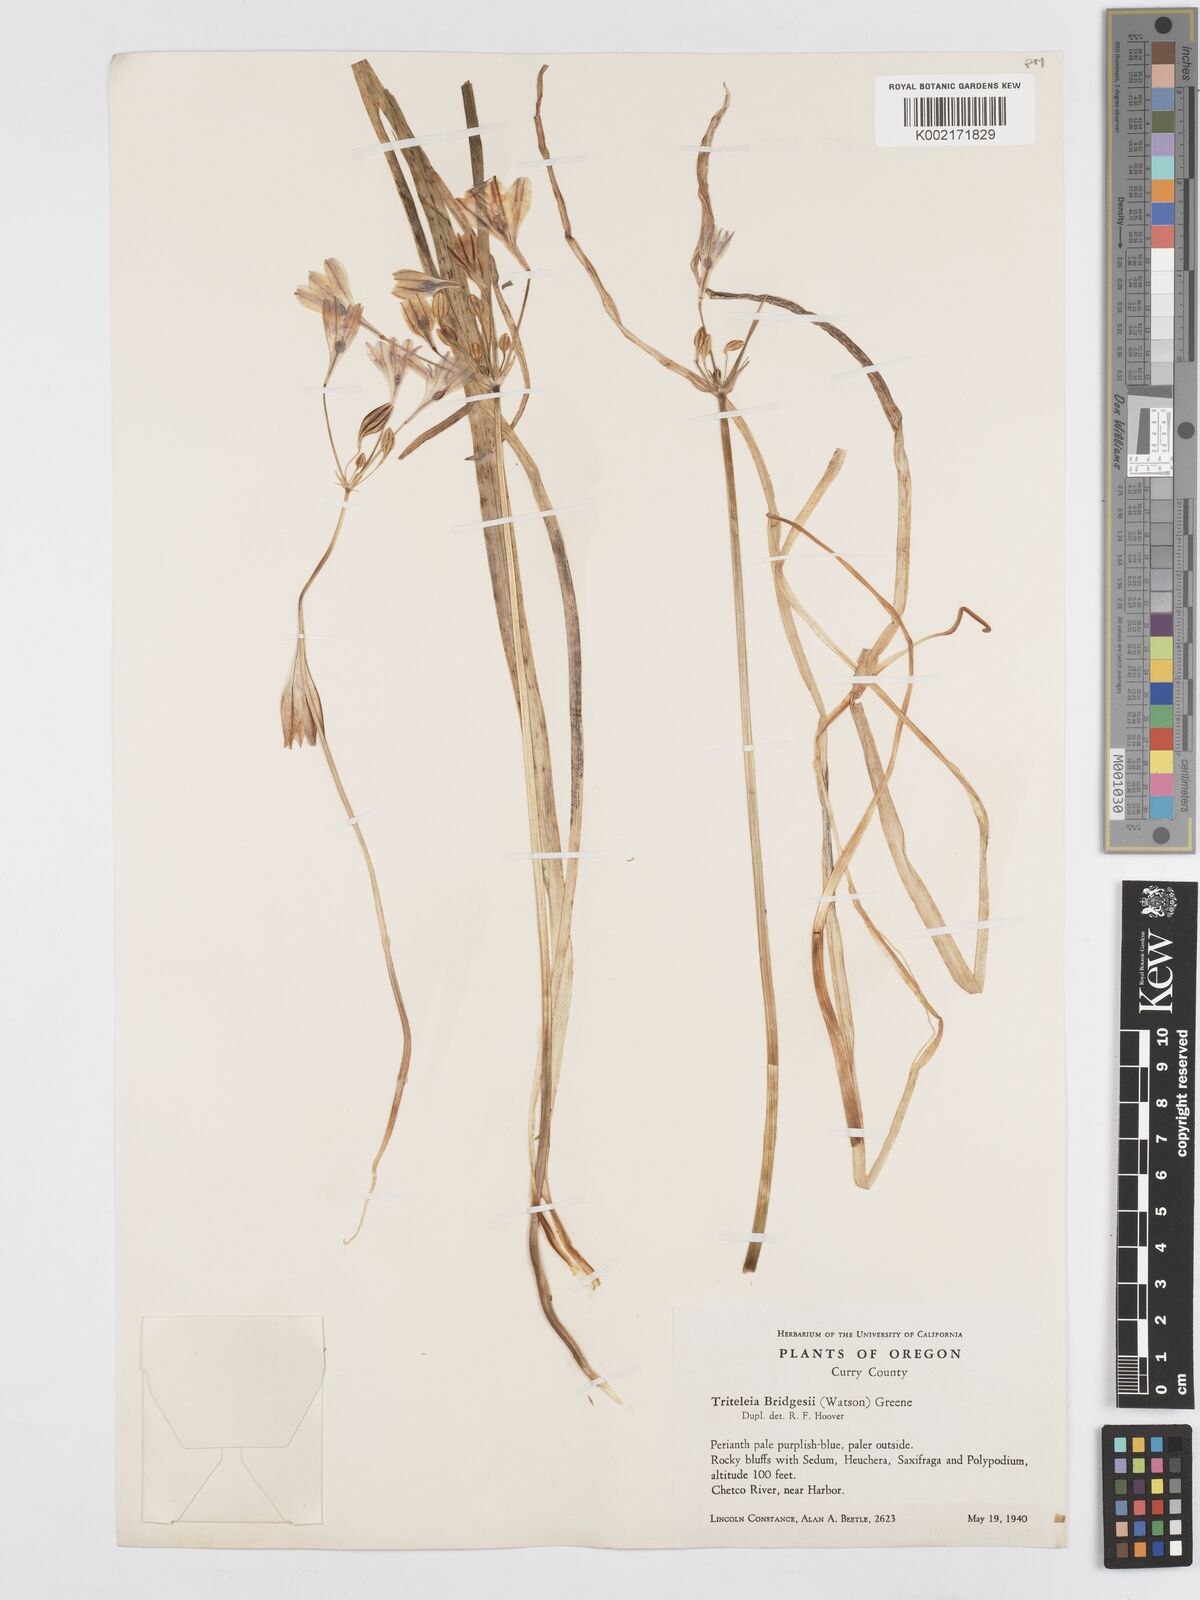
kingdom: Plantae
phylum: Tracheophyta
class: Liliopsida
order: Asparagales
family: Asparagaceae
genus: Triteleia
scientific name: Triteleia bridgesii
